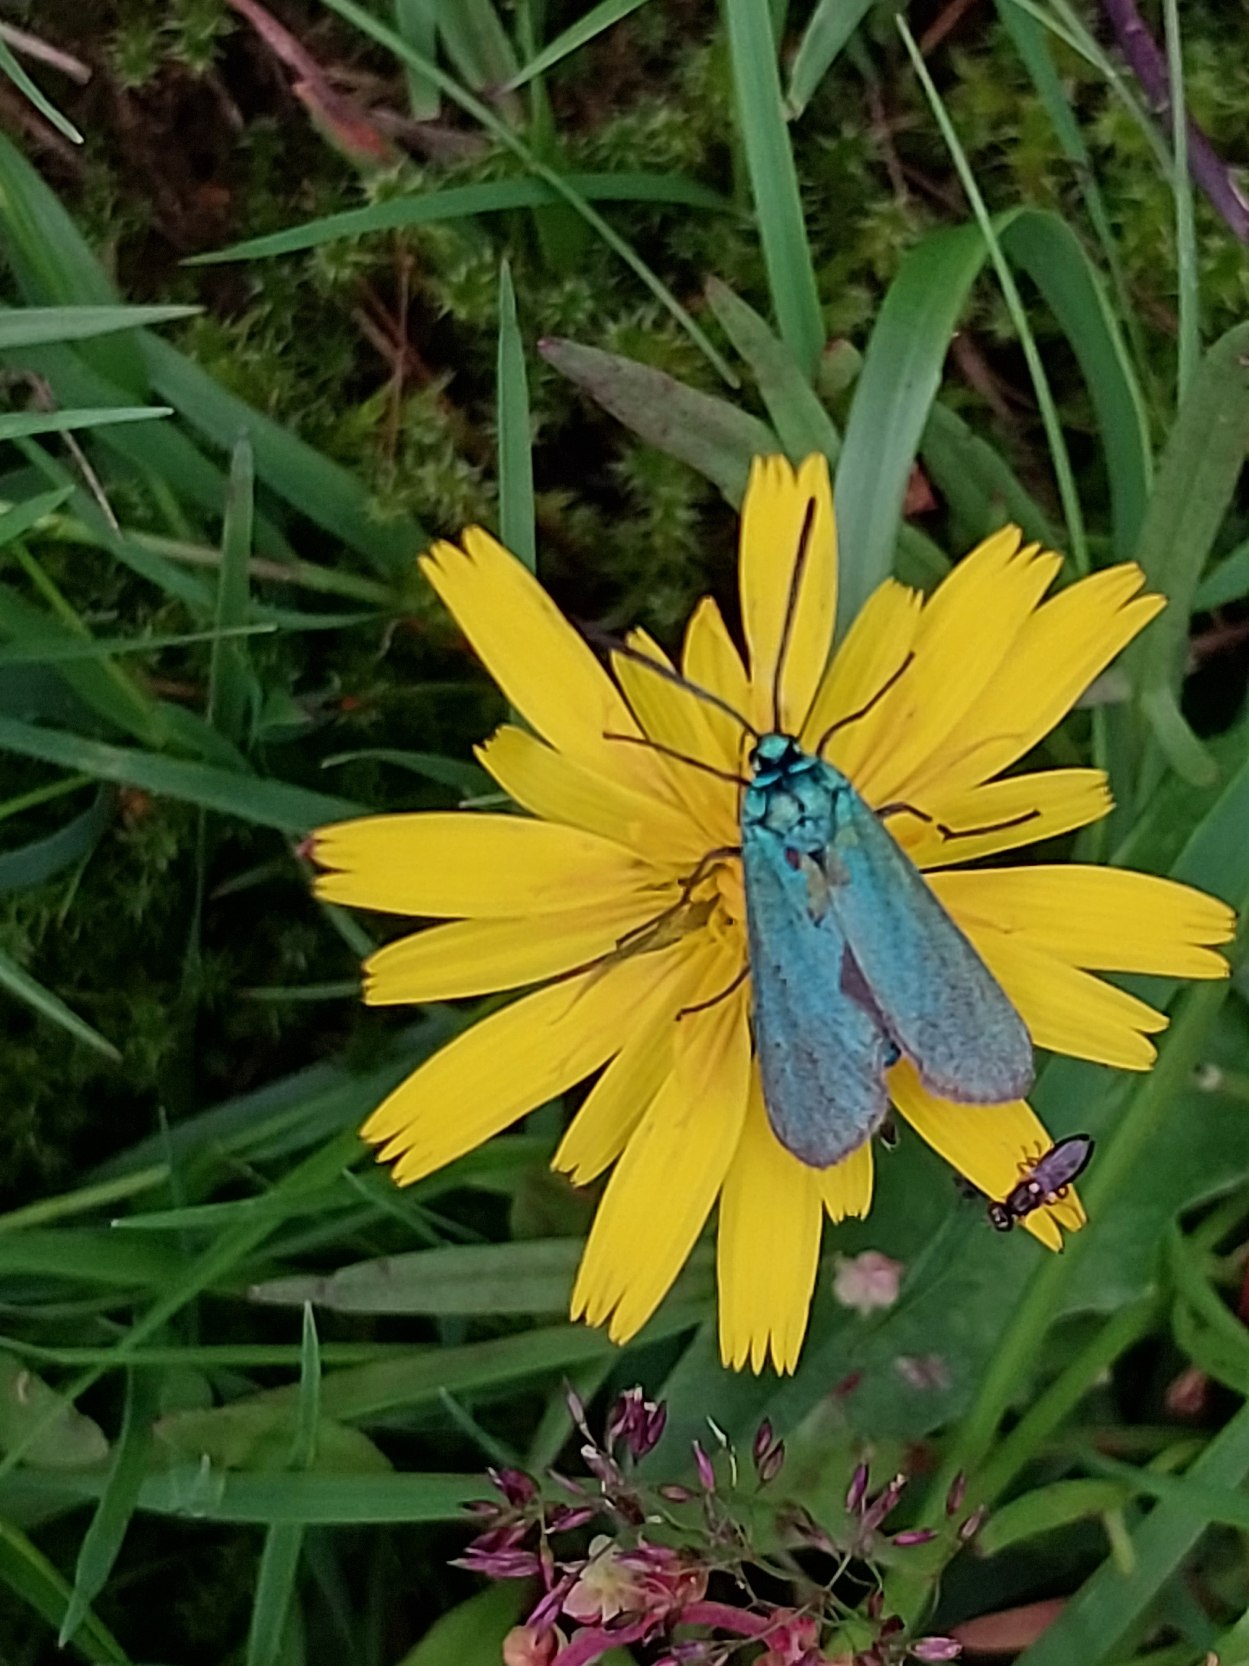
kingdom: Animalia
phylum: Arthropoda
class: Insecta
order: Lepidoptera
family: Zygaenidae
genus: Adscita
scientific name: Adscita statices
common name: Metalvinge
